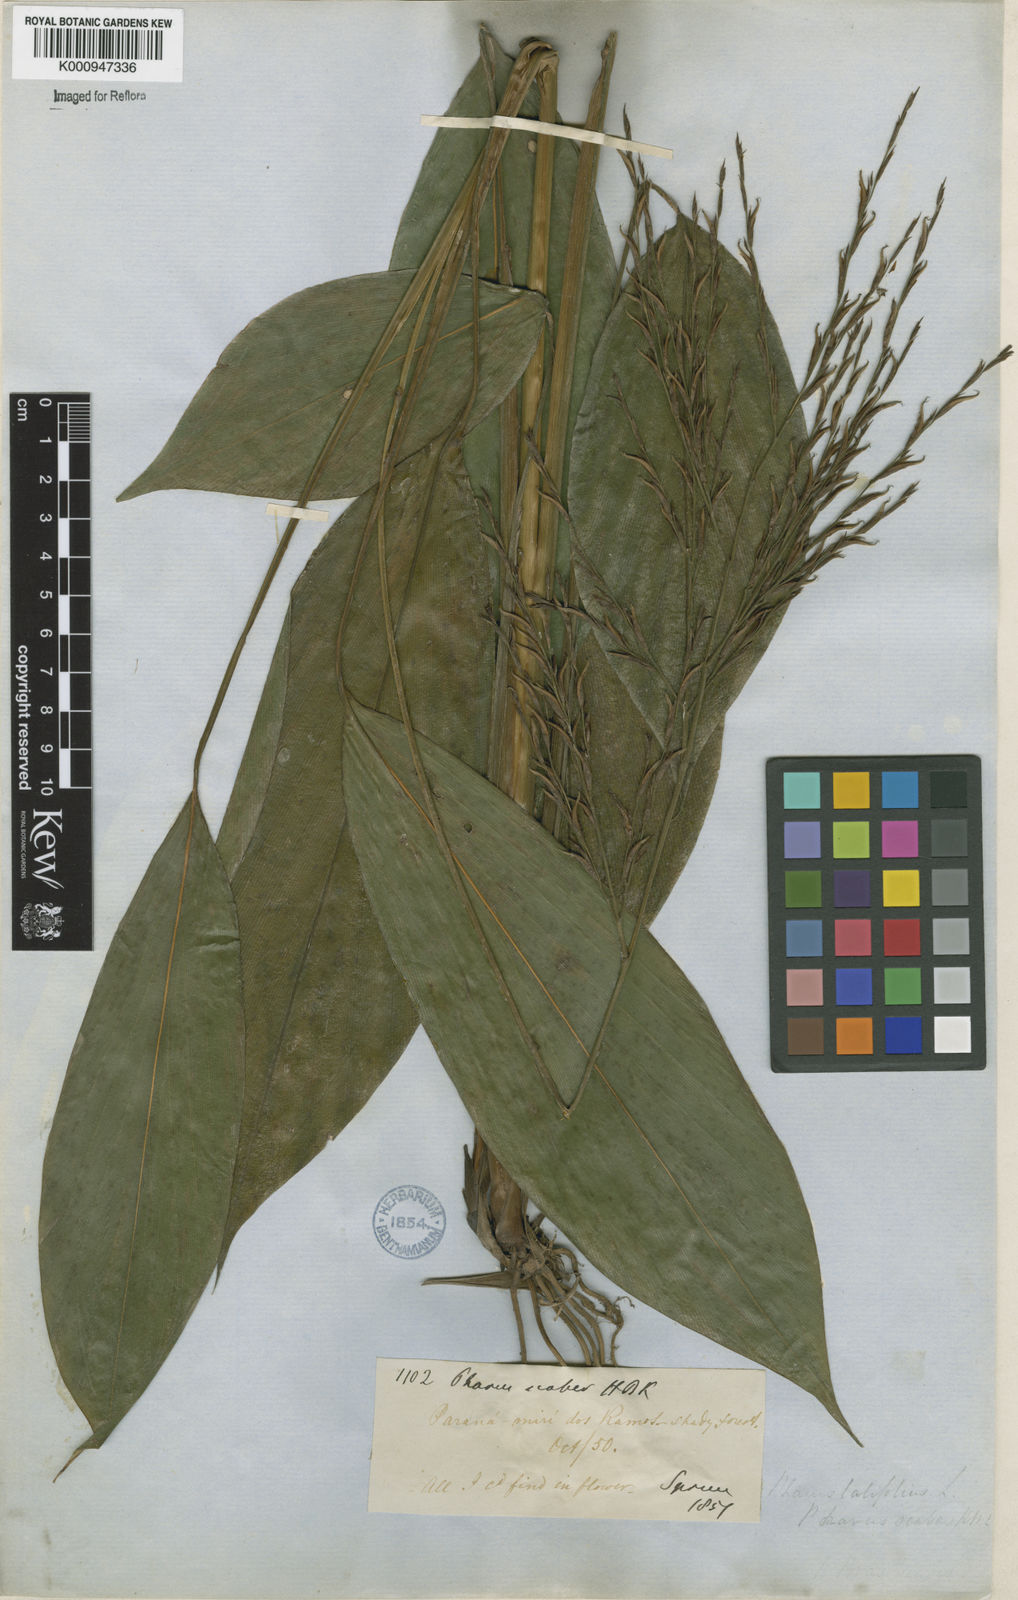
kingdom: Plantae
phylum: Tracheophyta
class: Liliopsida
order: Poales
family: Poaceae
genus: Pharus
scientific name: Pharus latifolius
